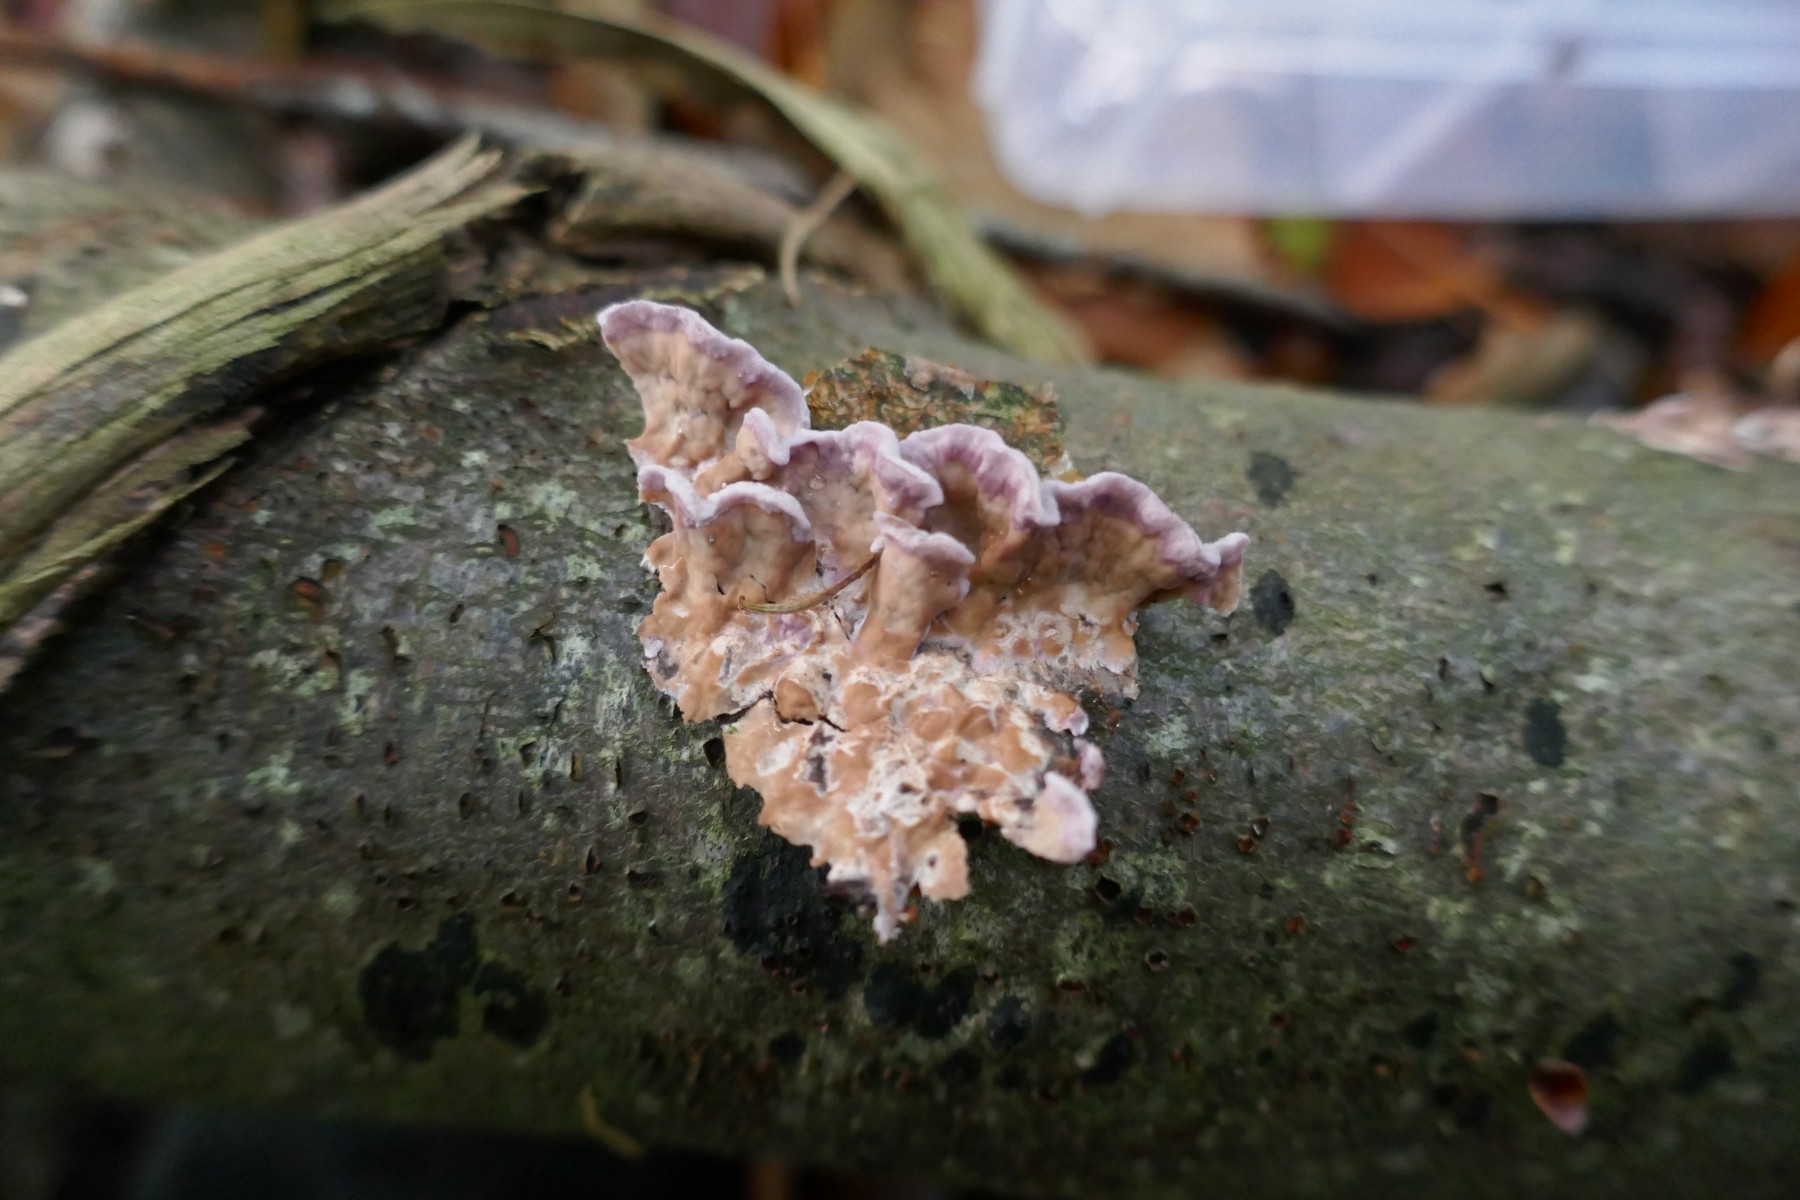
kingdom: Fungi
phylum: Basidiomycota
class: Agaricomycetes
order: Agaricales
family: Cyphellaceae
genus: Chondrostereum
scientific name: Chondrostereum purpureum
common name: purpurlædersvamp
